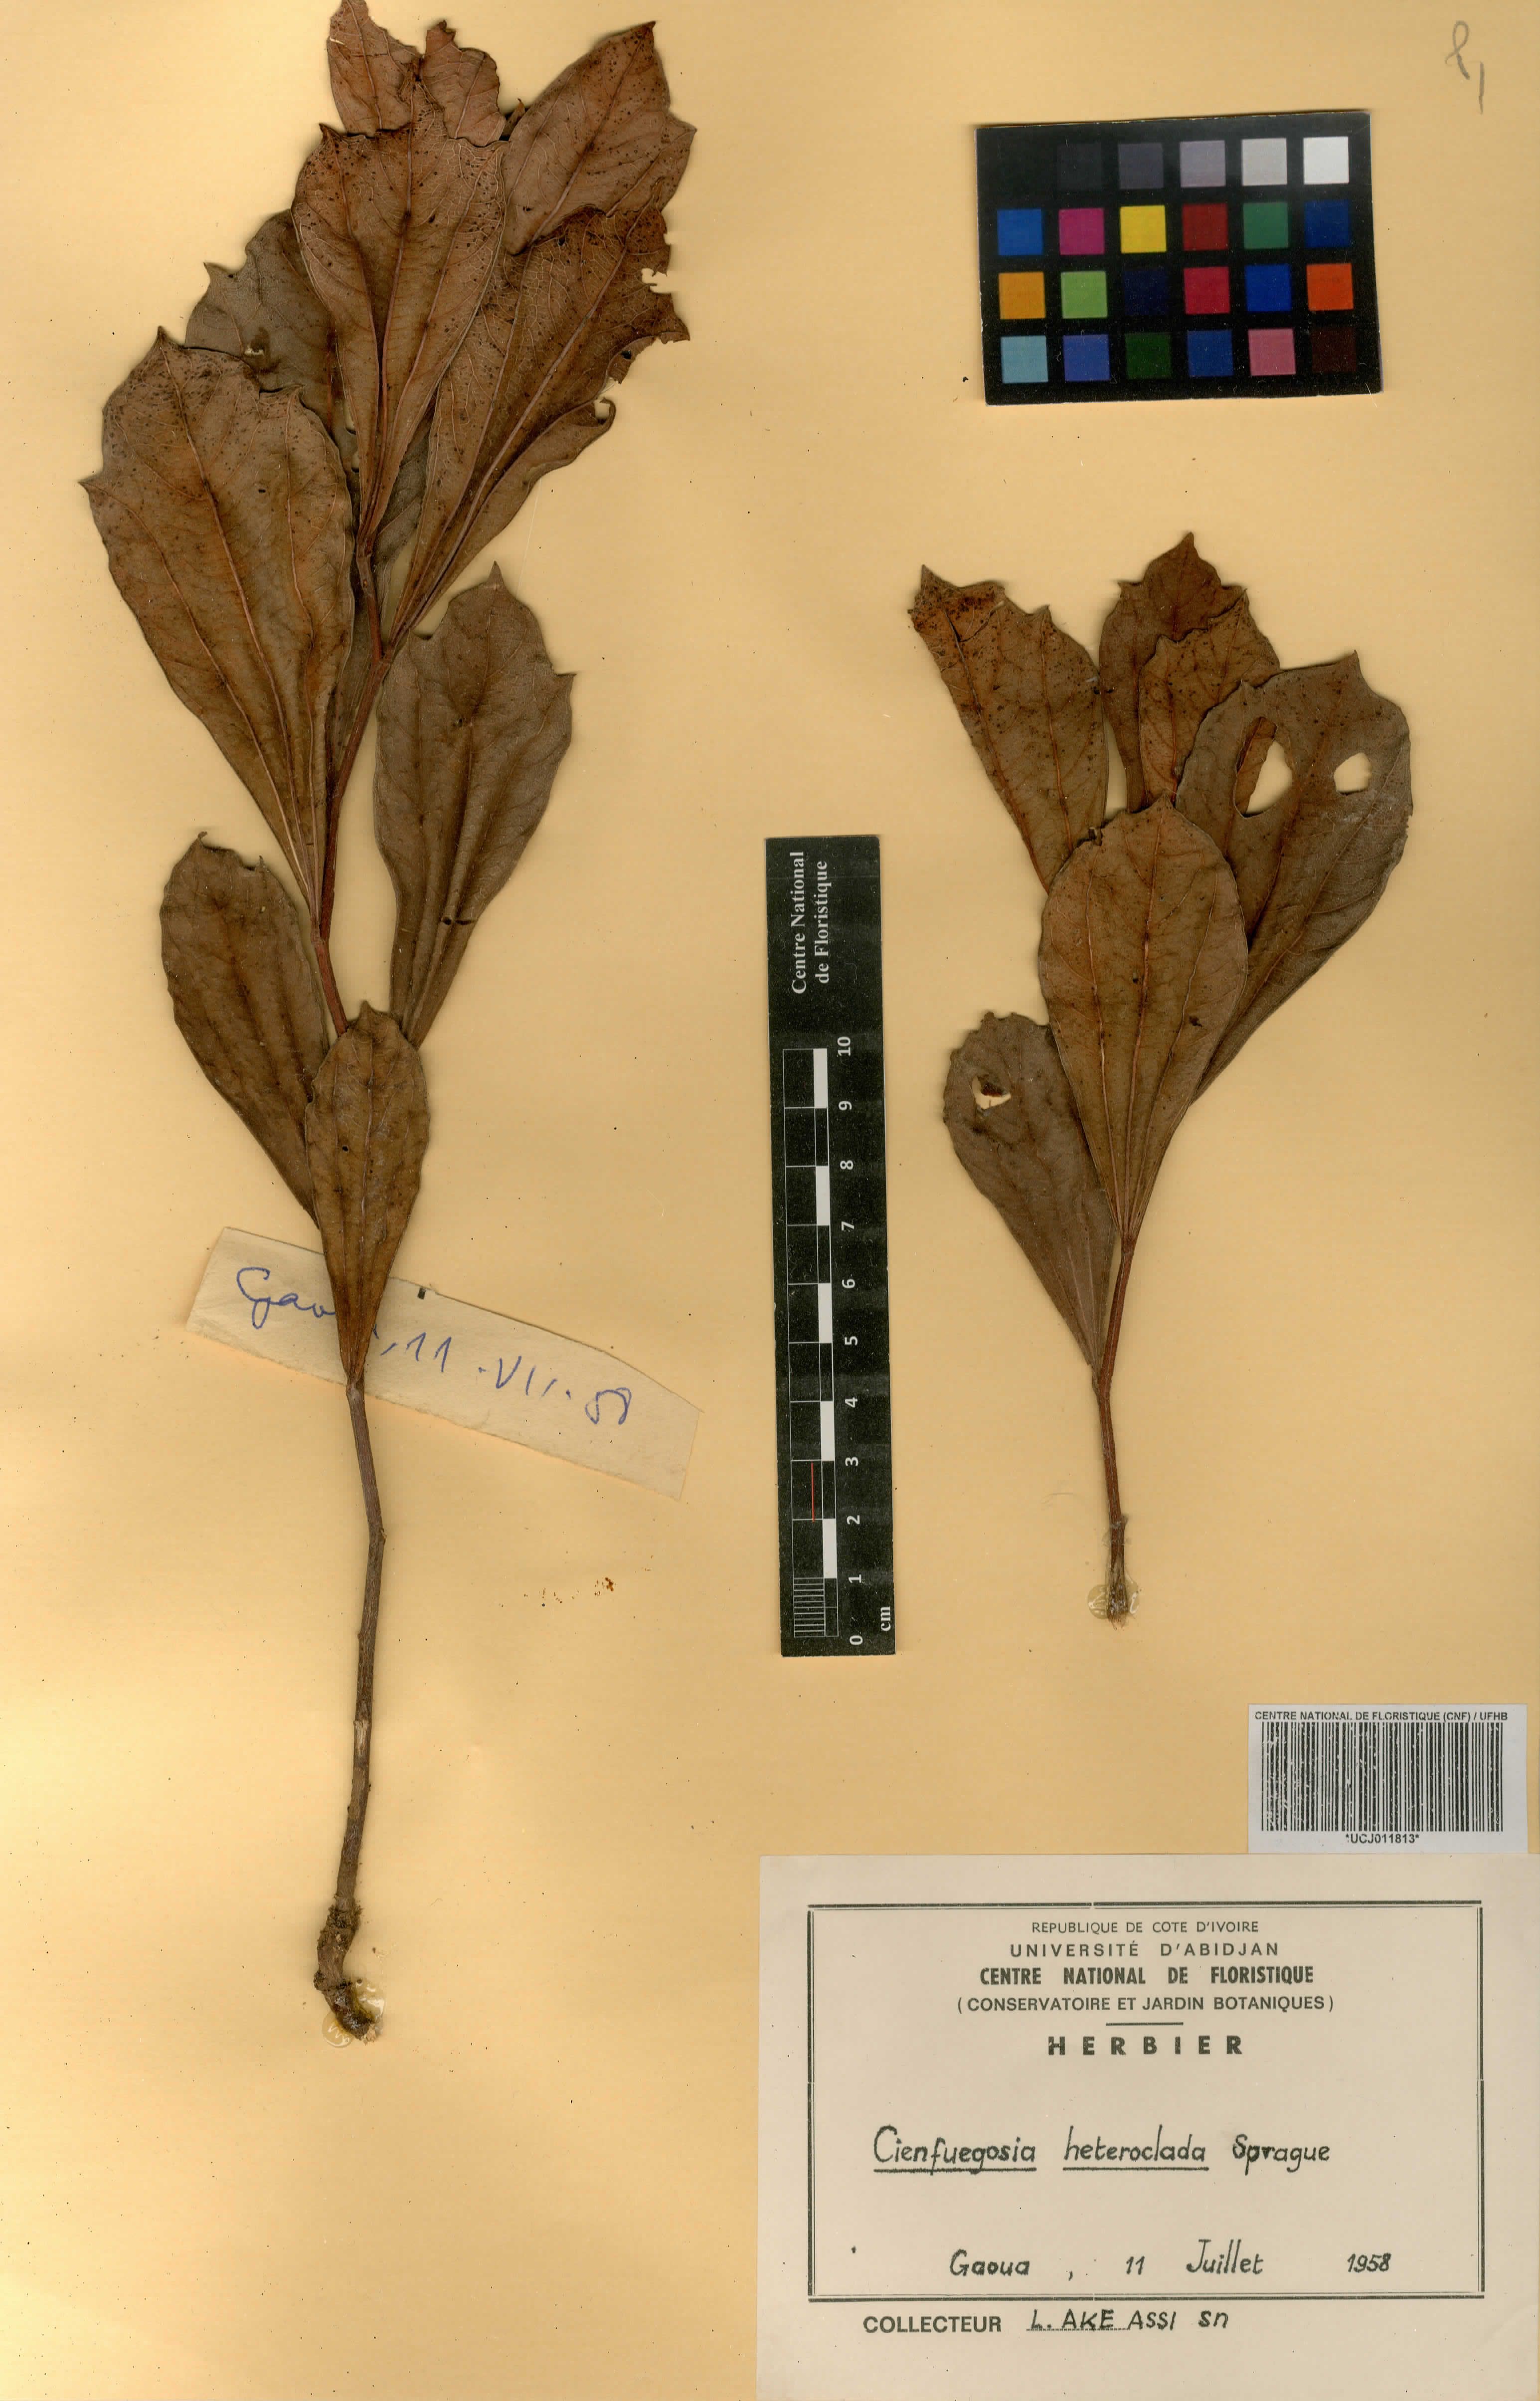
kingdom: Plantae
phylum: Tracheophyta
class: Magnoliopsida
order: Malvales
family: Malvaceae
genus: Cienfuegosia
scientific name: Cienfuegosia heteroclada
